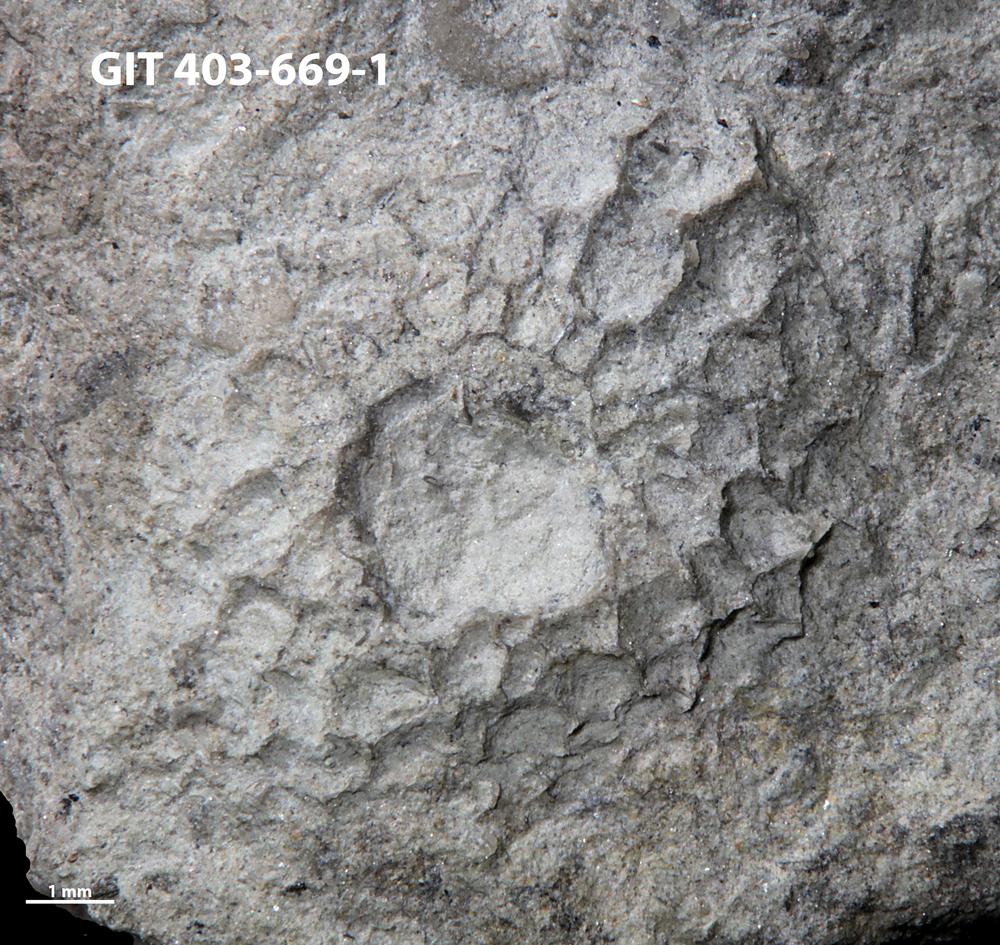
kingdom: Animalia
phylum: Cnidaria
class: Anthozoa
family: Favositidae
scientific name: Favositidae
